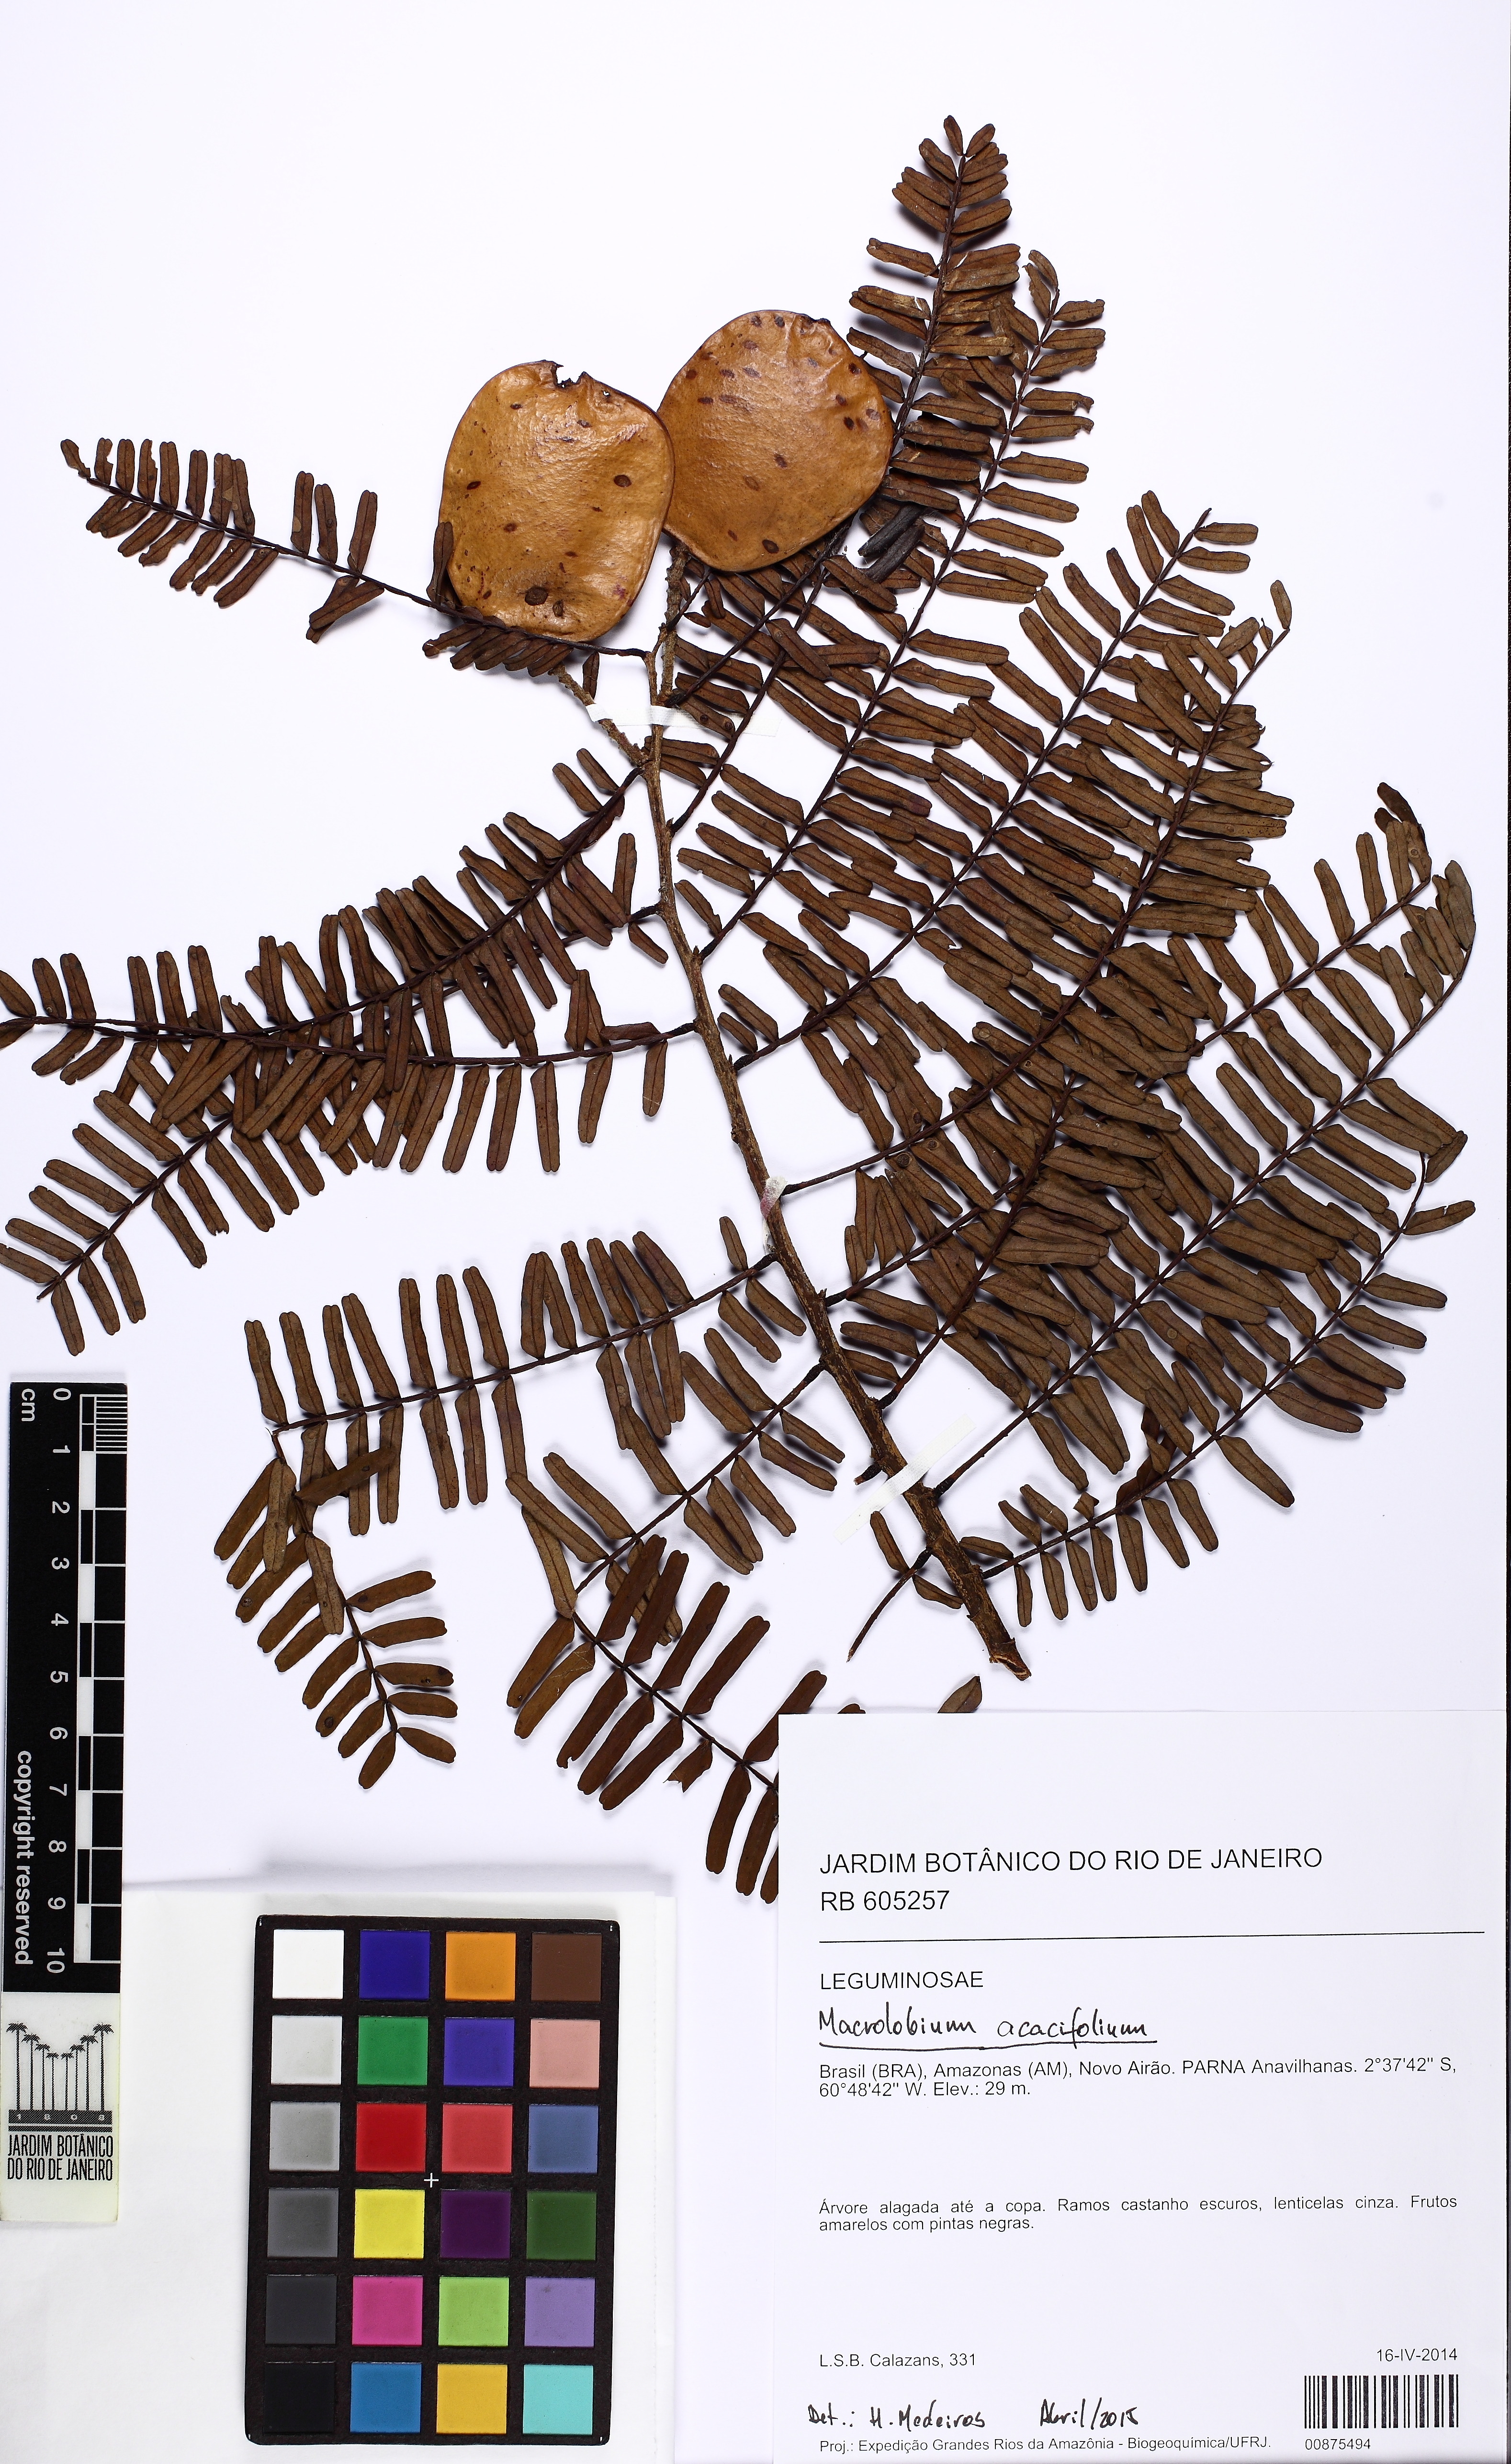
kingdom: Plantae
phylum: Tracheophyta
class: Magnoliopsida
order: Fabales
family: Fabaceae
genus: Macrolobium
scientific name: Macrolobium acaciifolium
